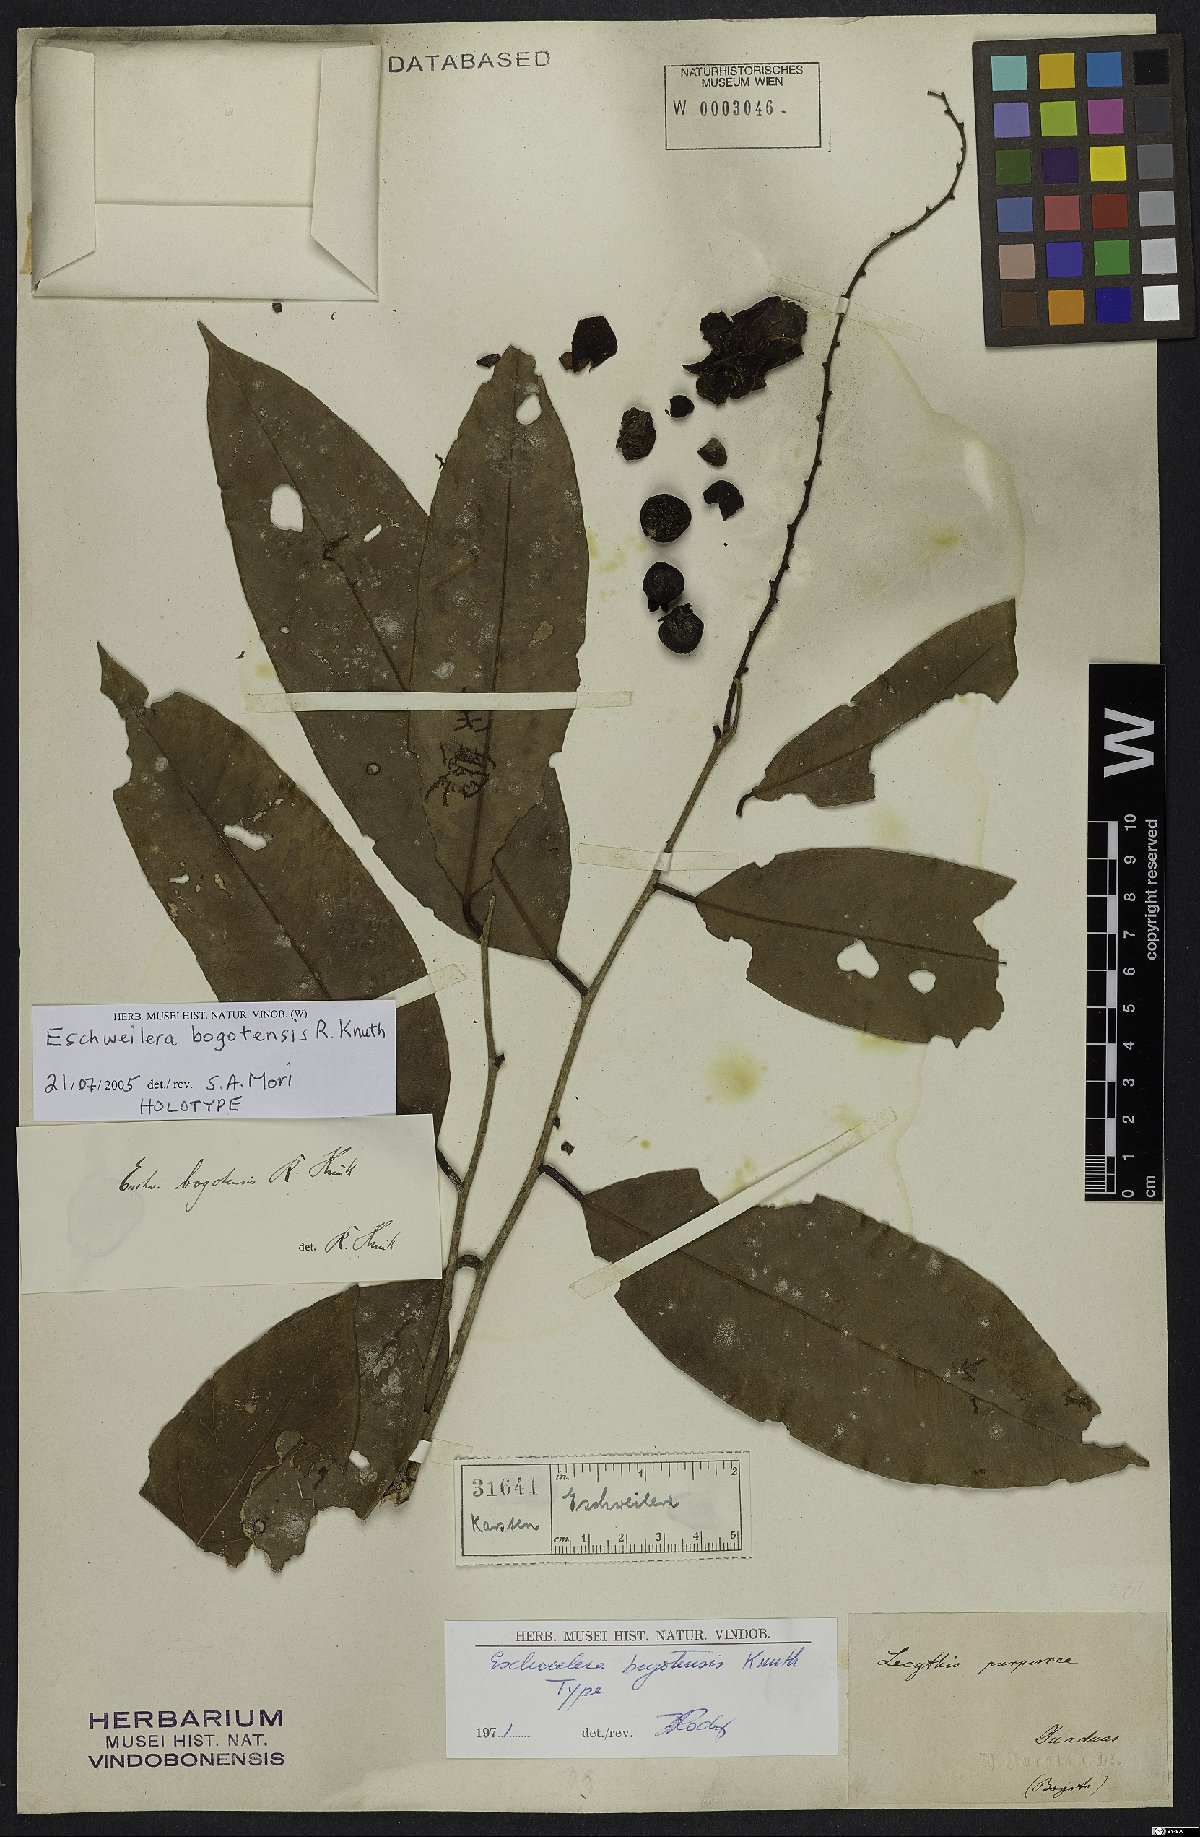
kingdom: Plantae
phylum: Tracheophyta
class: Magnoliopsida
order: Ericales
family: Lecythidaceae
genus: Eschweilera
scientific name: Eschweilera bogotensis
